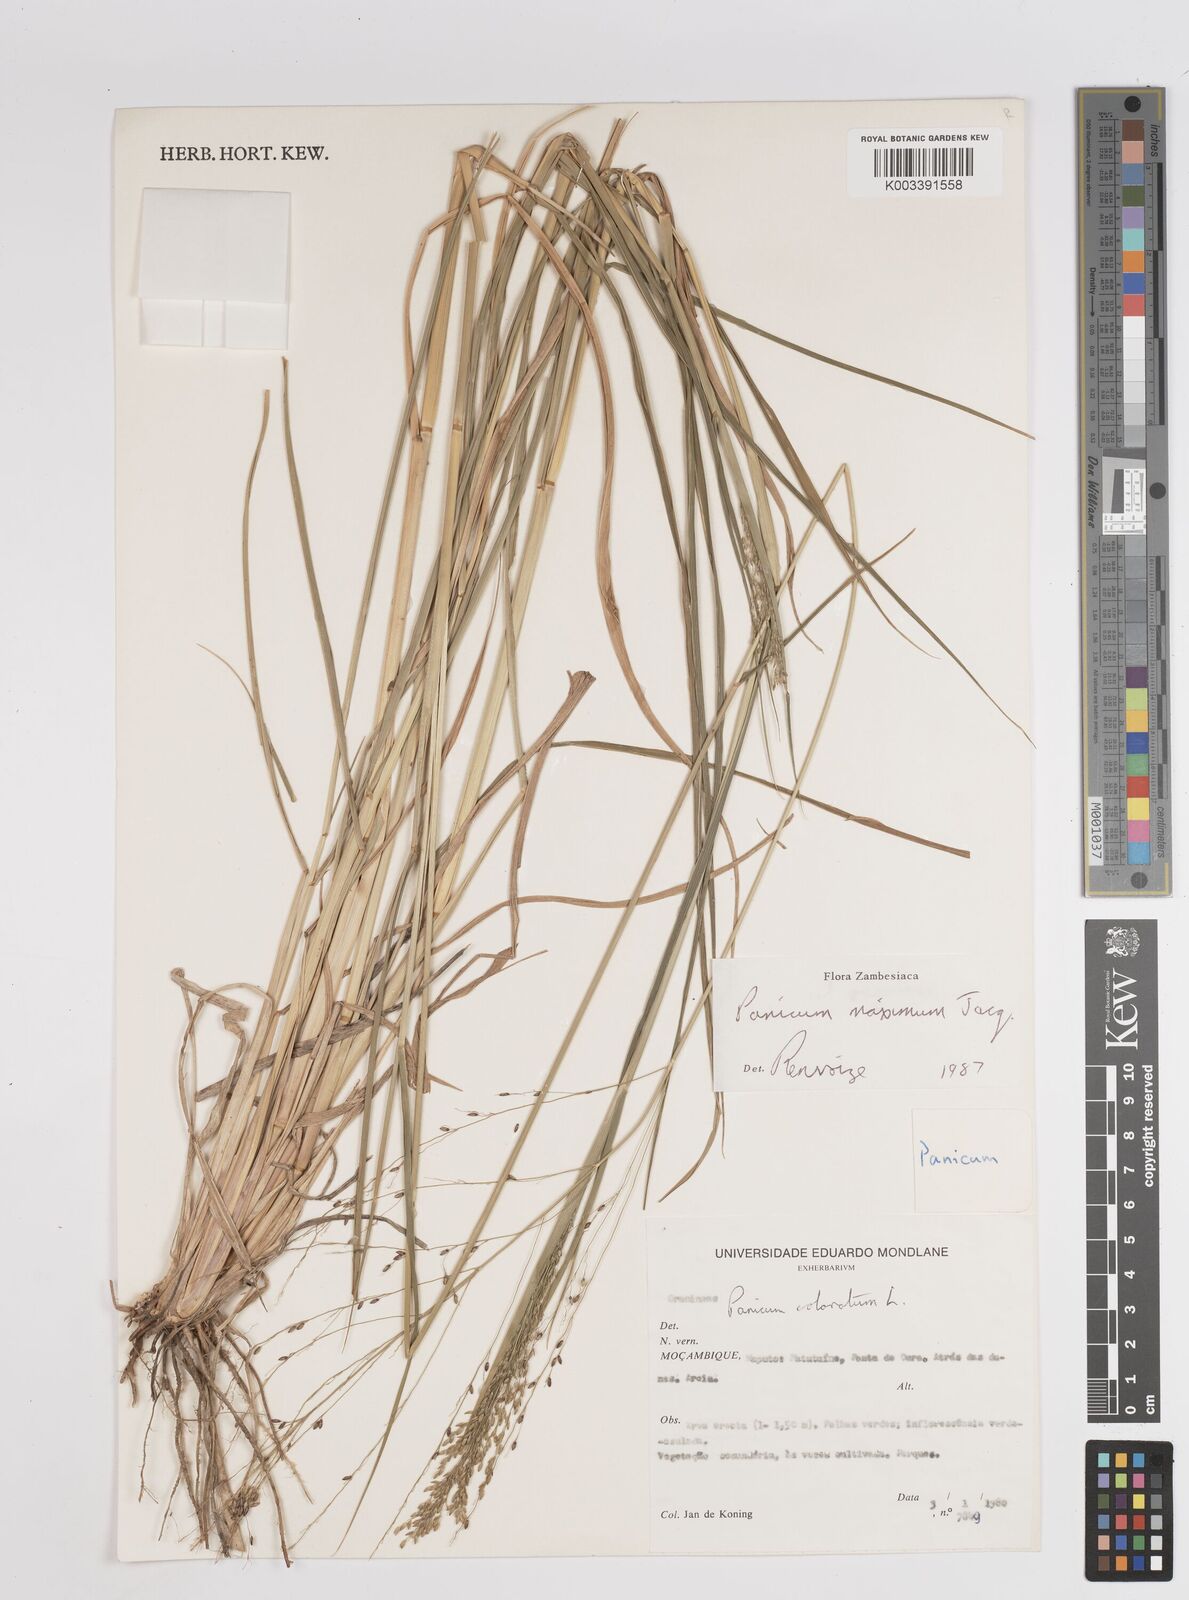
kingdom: Plantae
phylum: Tracheophyta
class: Liliopsida
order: Poales
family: Poaceae
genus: Megathyrsus
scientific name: Megathyrsus maximus
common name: Guineagrass
